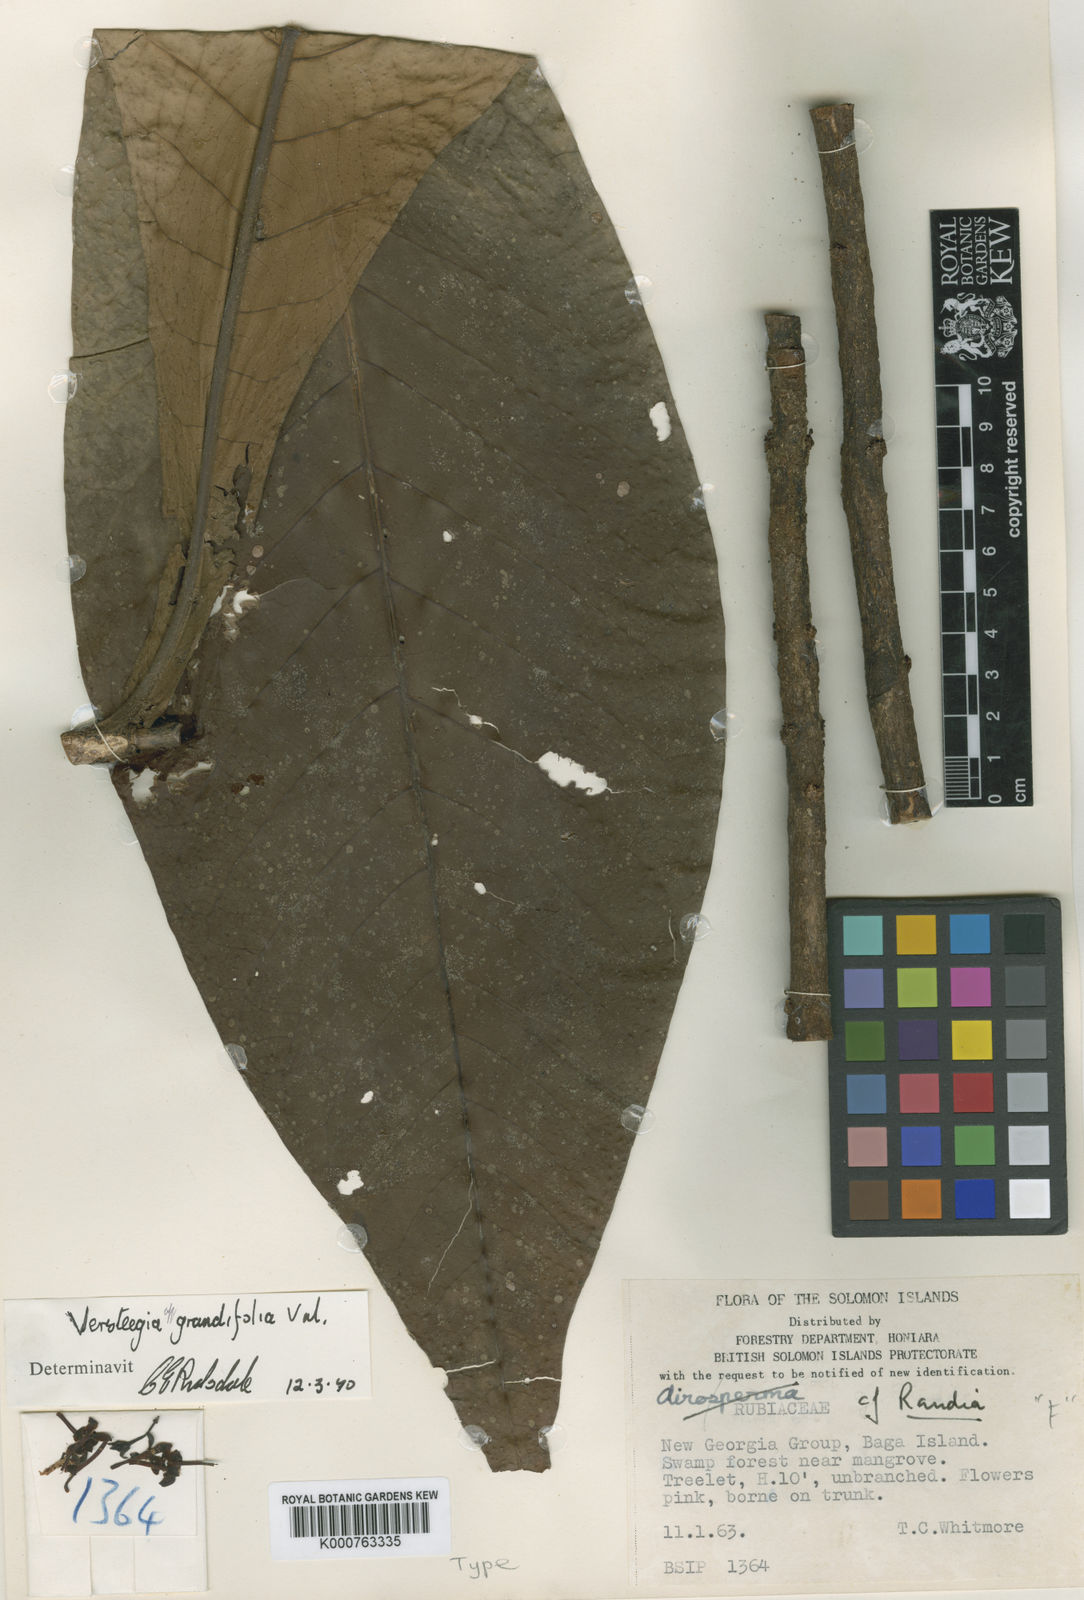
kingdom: Plantae
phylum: Tracheophyta
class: Magnoliopsida
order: Gentianales
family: Rubiaceae
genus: Ixora
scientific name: Ixora solomonensis
